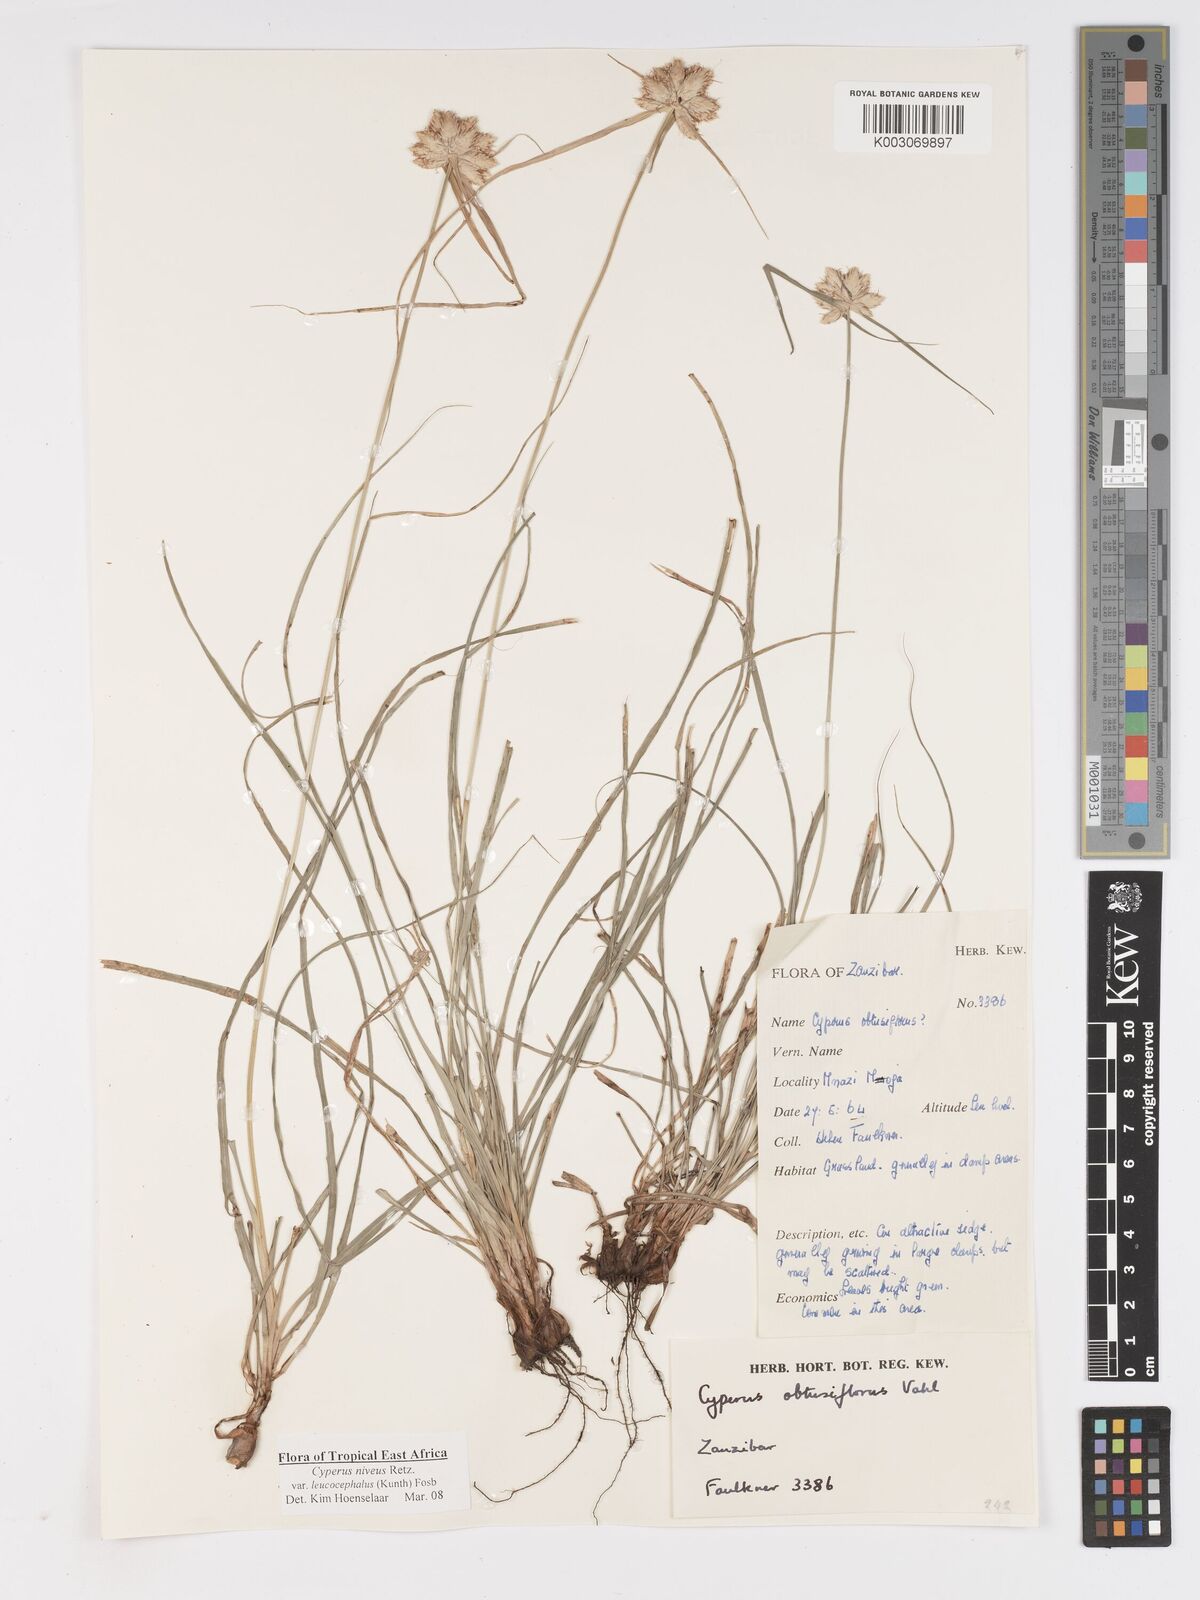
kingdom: Plantae
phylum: Tracheophyta
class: Liliopsida
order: Poales
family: Cyperaceae
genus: Cyperus
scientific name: Cyperus niveus
